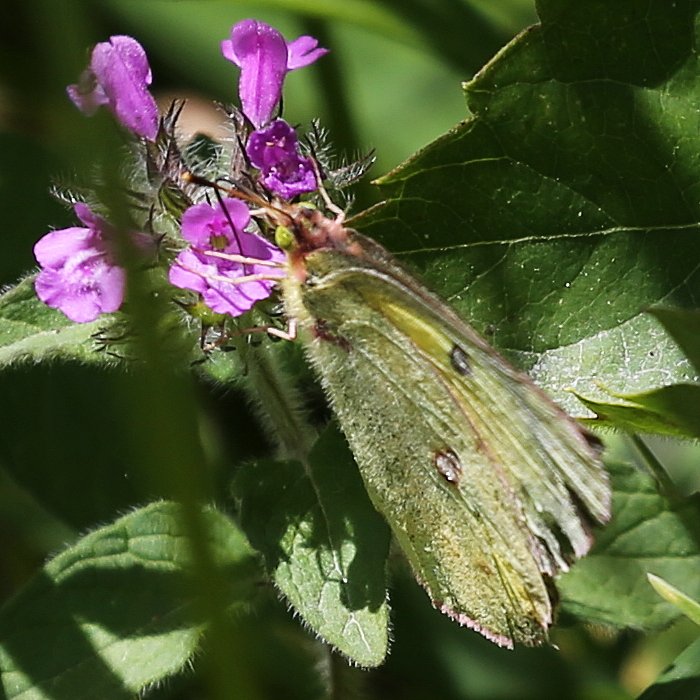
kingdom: Animalia
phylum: Arthropoda
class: Insecta
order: Lepidoptera
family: Pieridae
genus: Colias
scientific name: Colias philodice
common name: Clouded Sulphur
